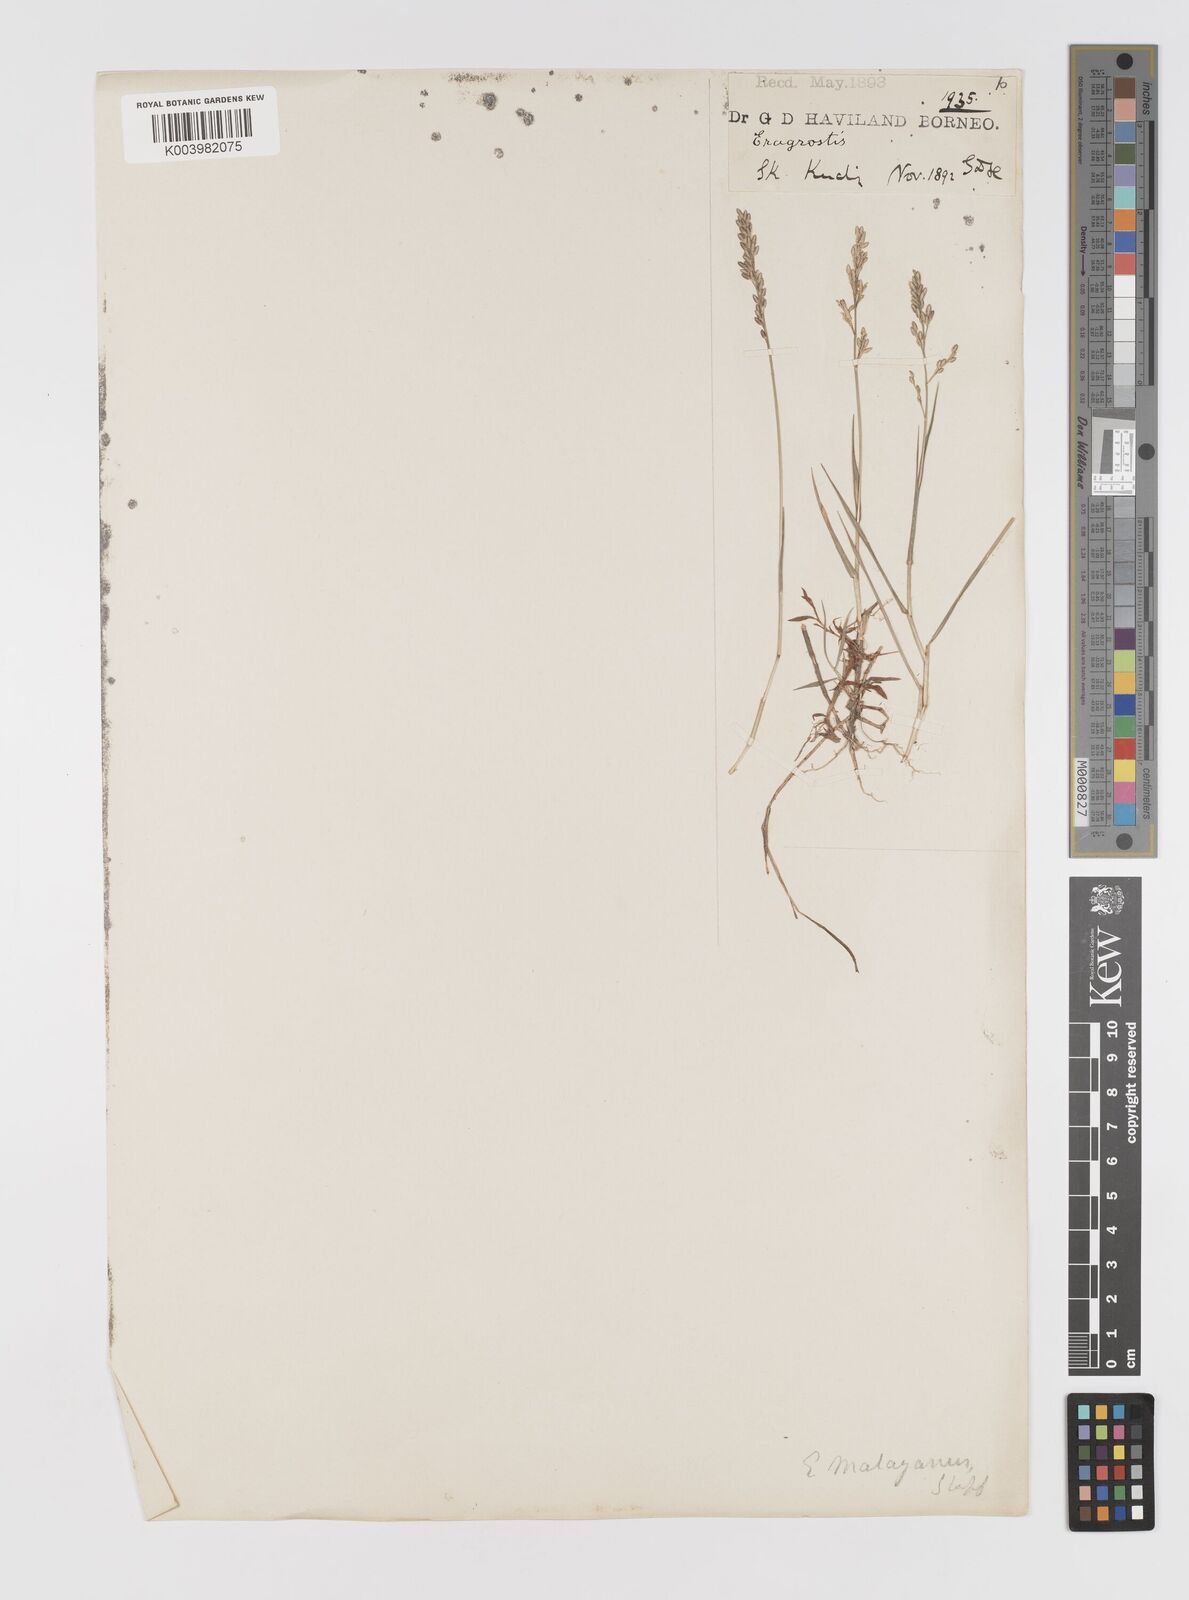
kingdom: Plantae
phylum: Tracheophyta
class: Liliopsida
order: Poales
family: Poaceae
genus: Eragrostis
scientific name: Eragrostis montana
